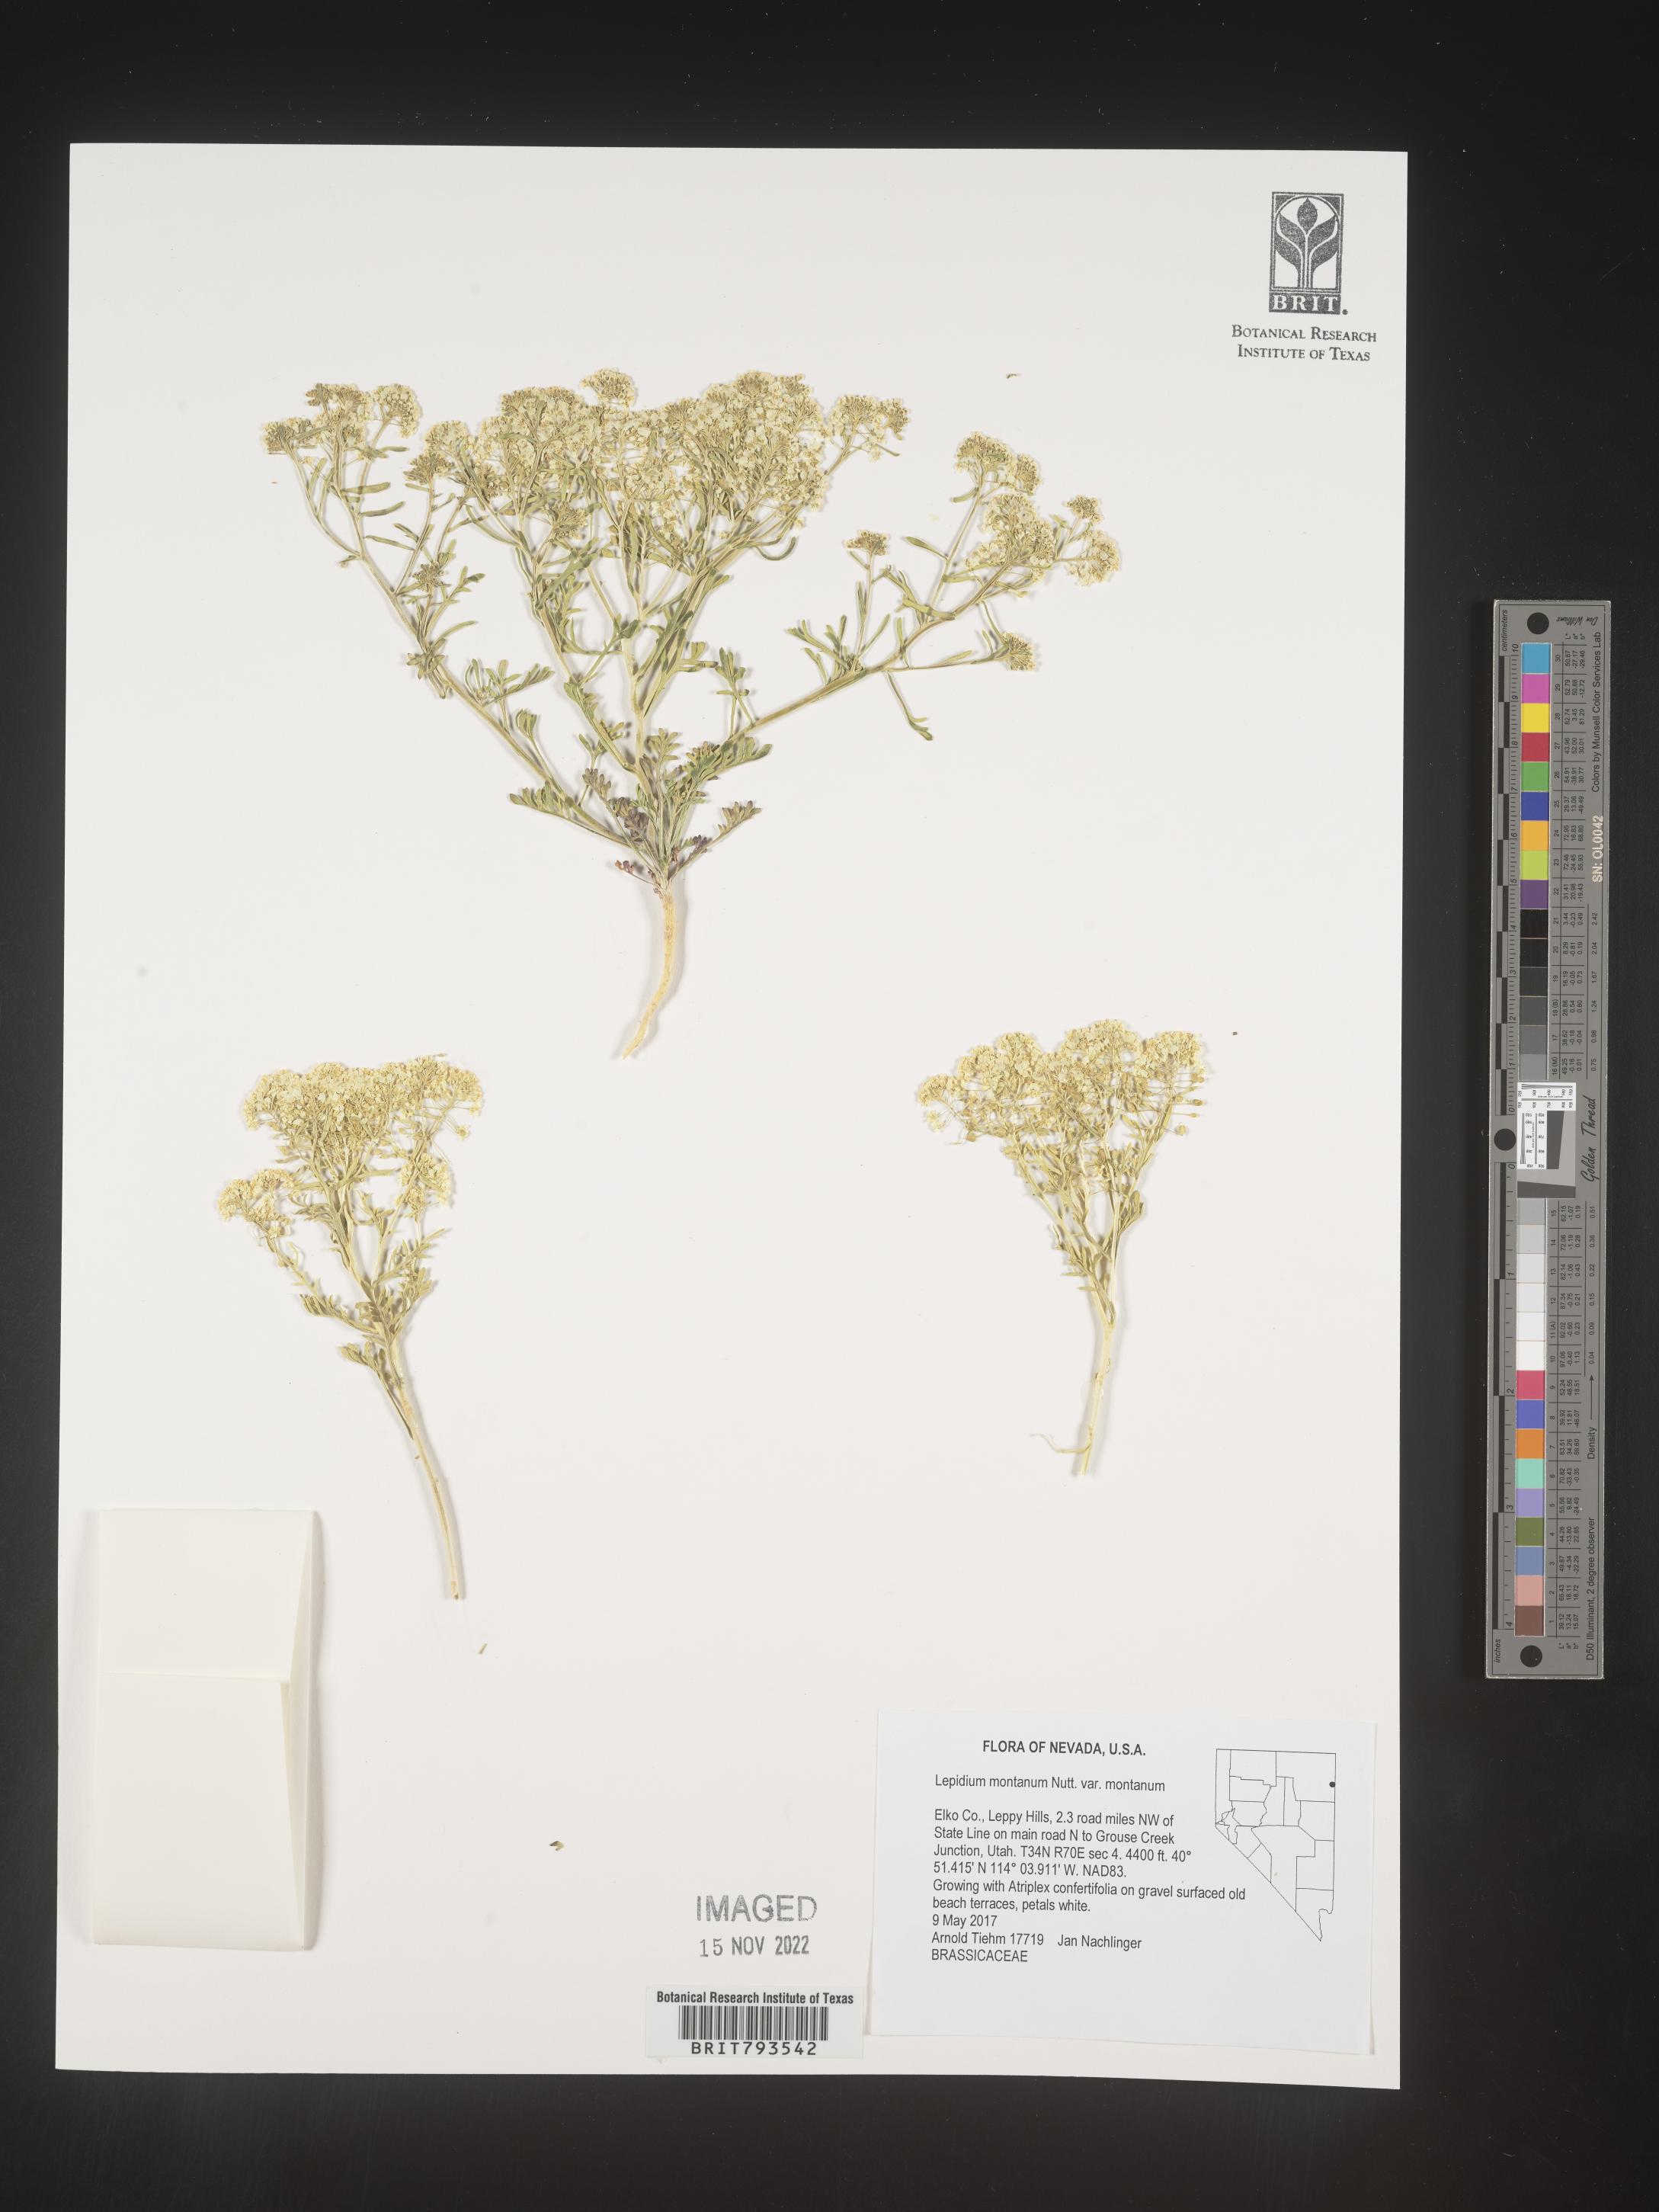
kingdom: Plantae
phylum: Tracheophyta
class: Magnoliopsida
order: Brassicales
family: Brassicaceae
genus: Lepidium
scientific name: Lepidium montanum
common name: Mountain pepperplant
